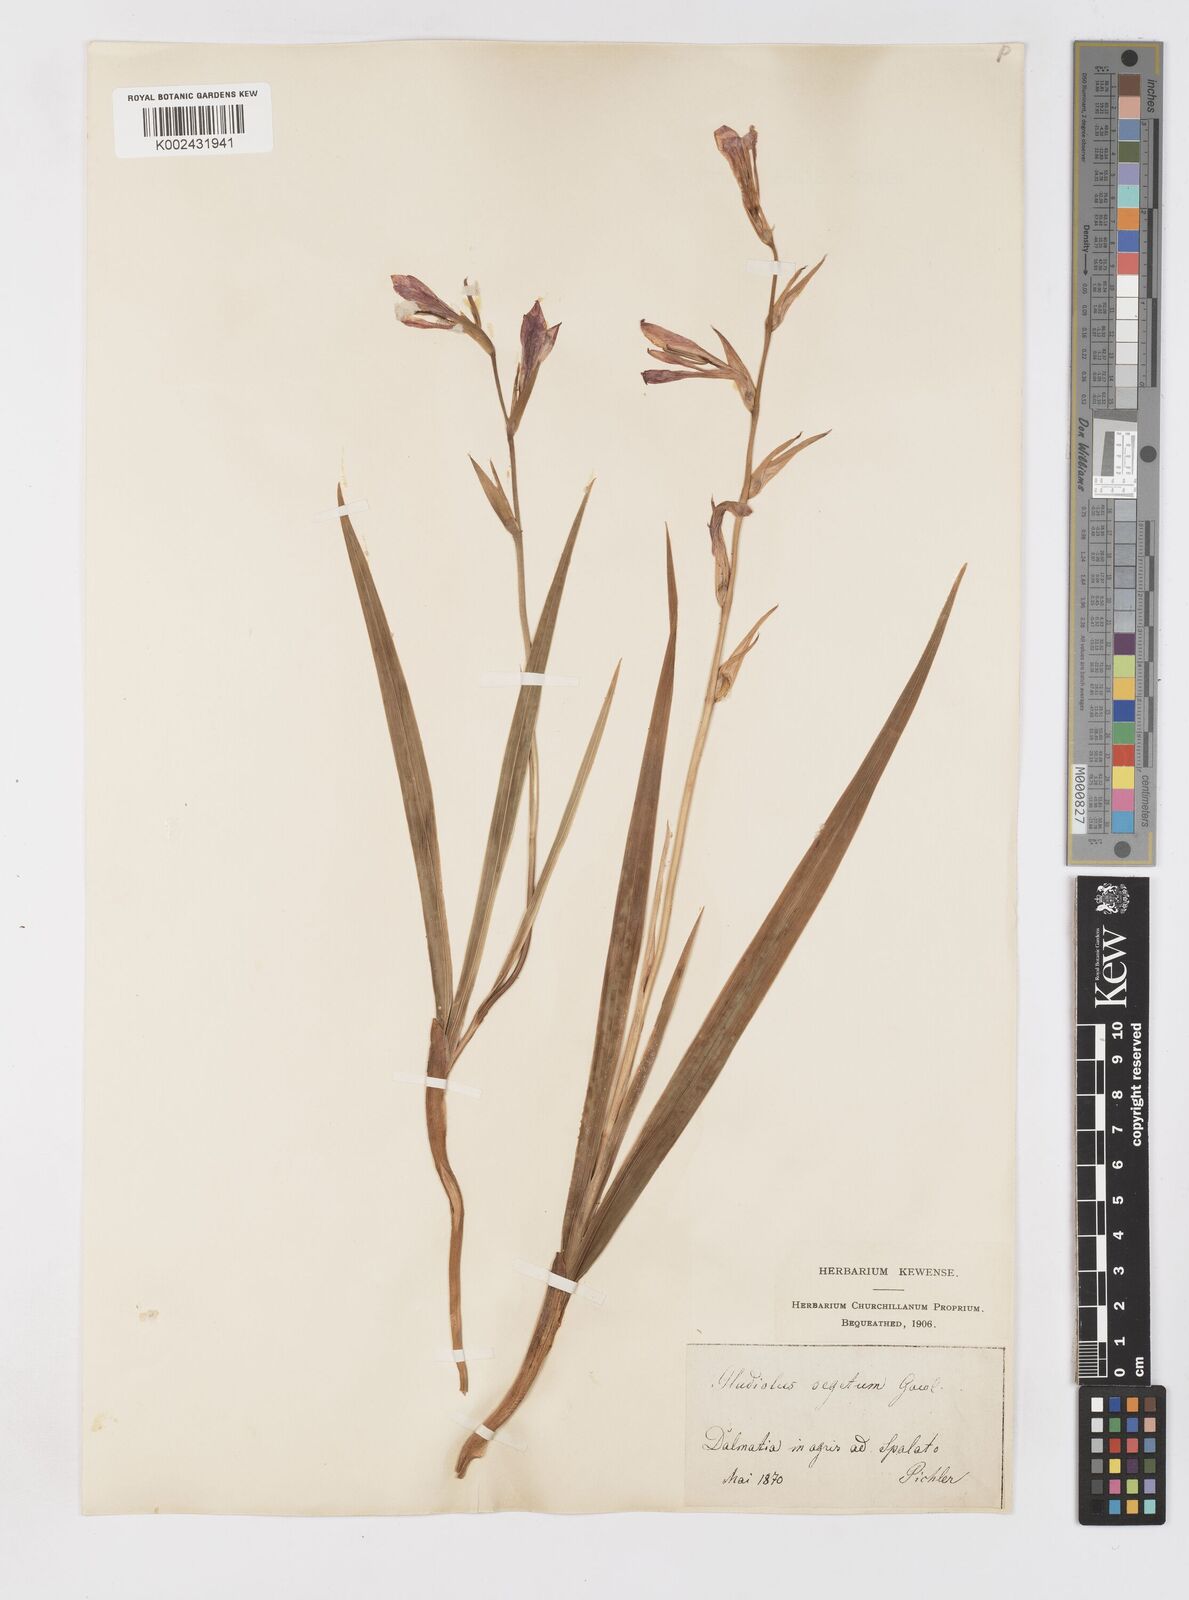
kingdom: Plantae
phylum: Tracheophyta
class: Liliopsida
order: Asparagales
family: Iridaceae
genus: Gladiolus
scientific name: Gladiolus italicus
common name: Field gladiolus
